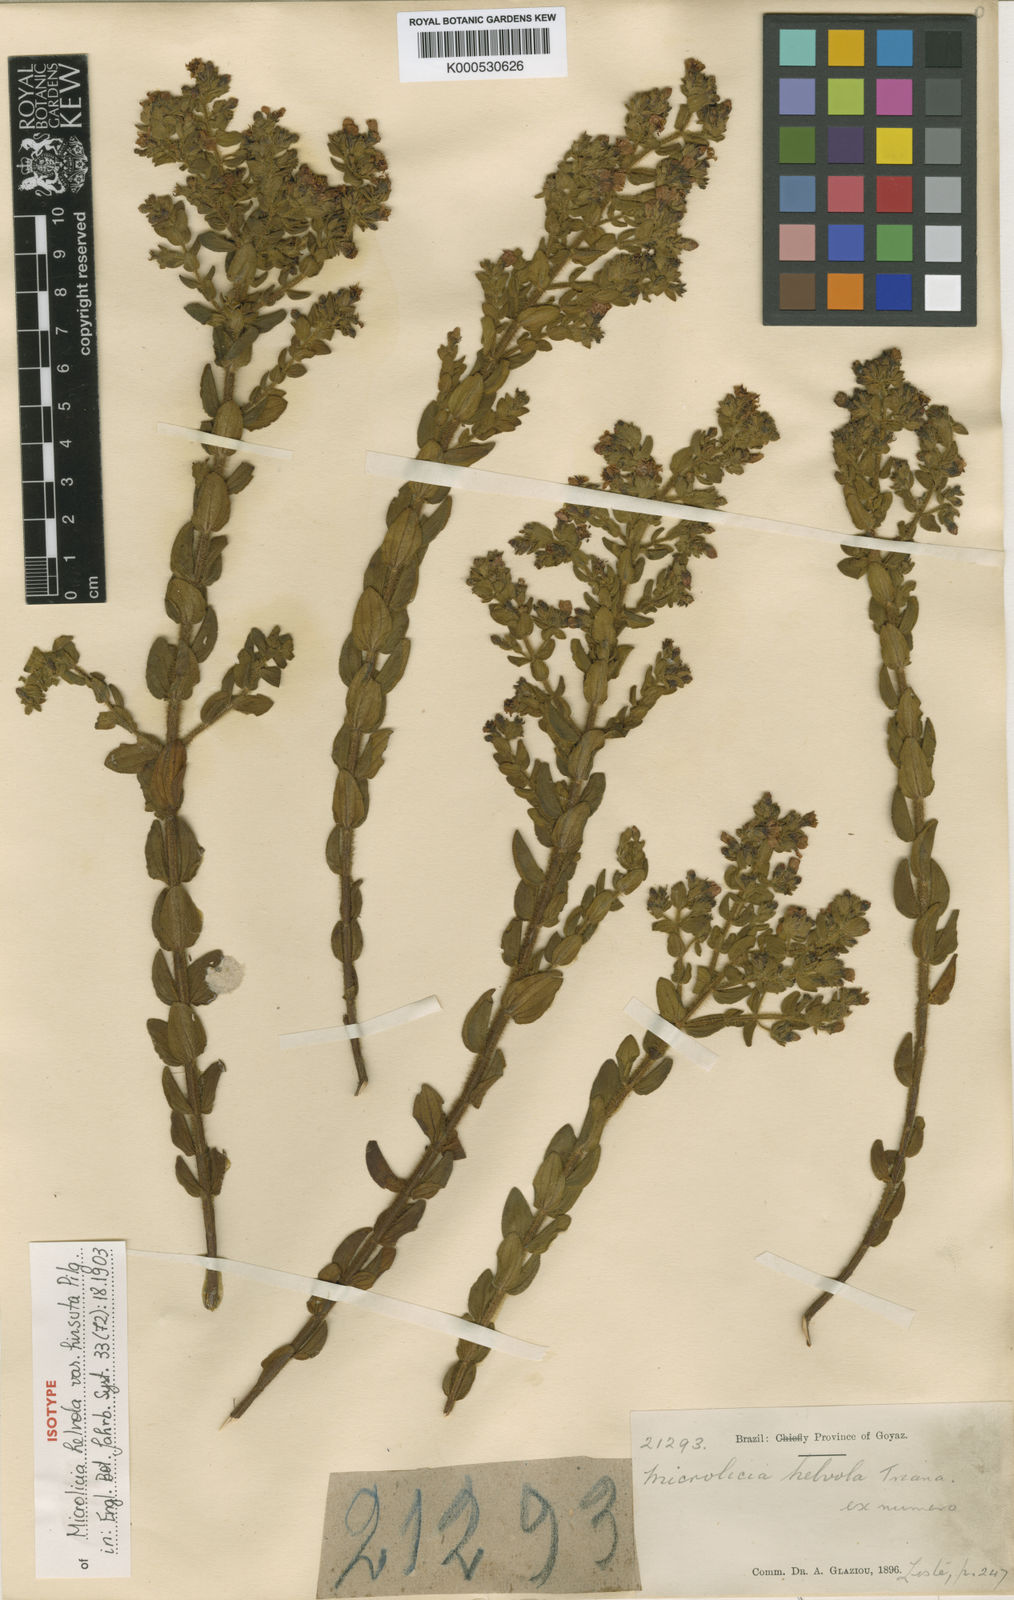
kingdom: Plantae
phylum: Tracheophyta
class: Magnoliopsida
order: Myrtales
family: Melastomataceae
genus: Microlicia
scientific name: Microlicia helvola
